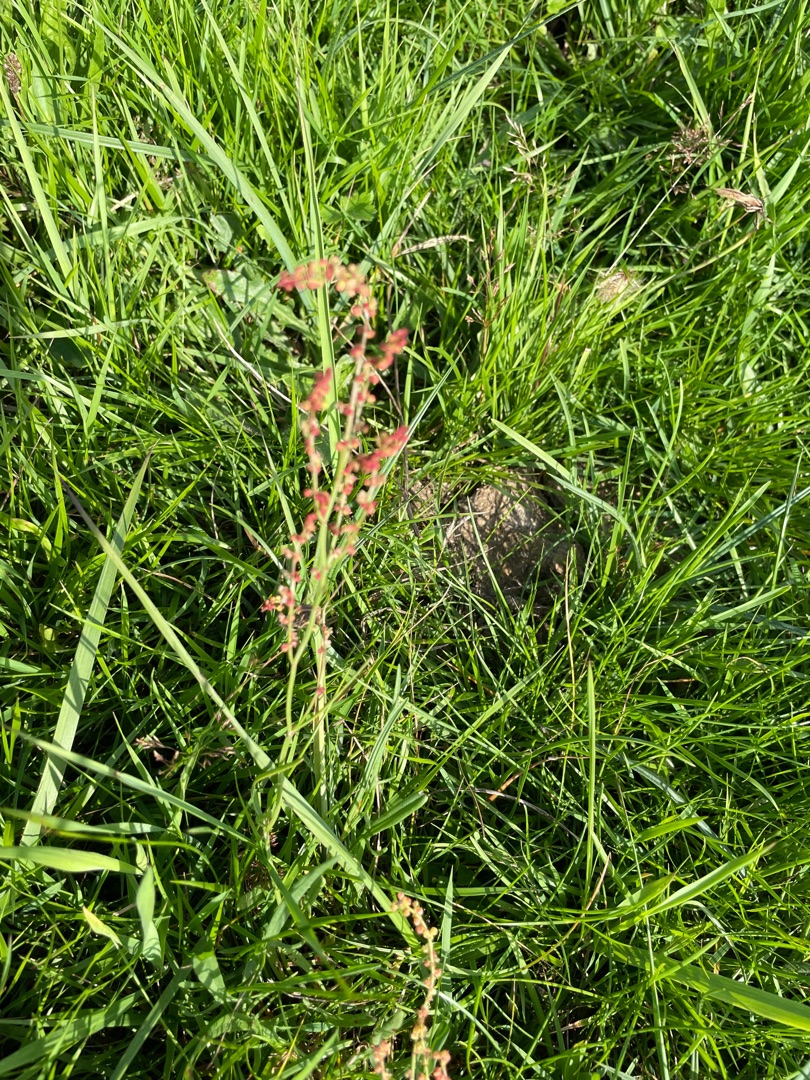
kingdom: Plantae
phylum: Tracheophyta
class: Magnoliopsida
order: Caryophyllales
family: Polygonaceae
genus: Rumex
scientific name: Rumex acetosa
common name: Almindelig syre
